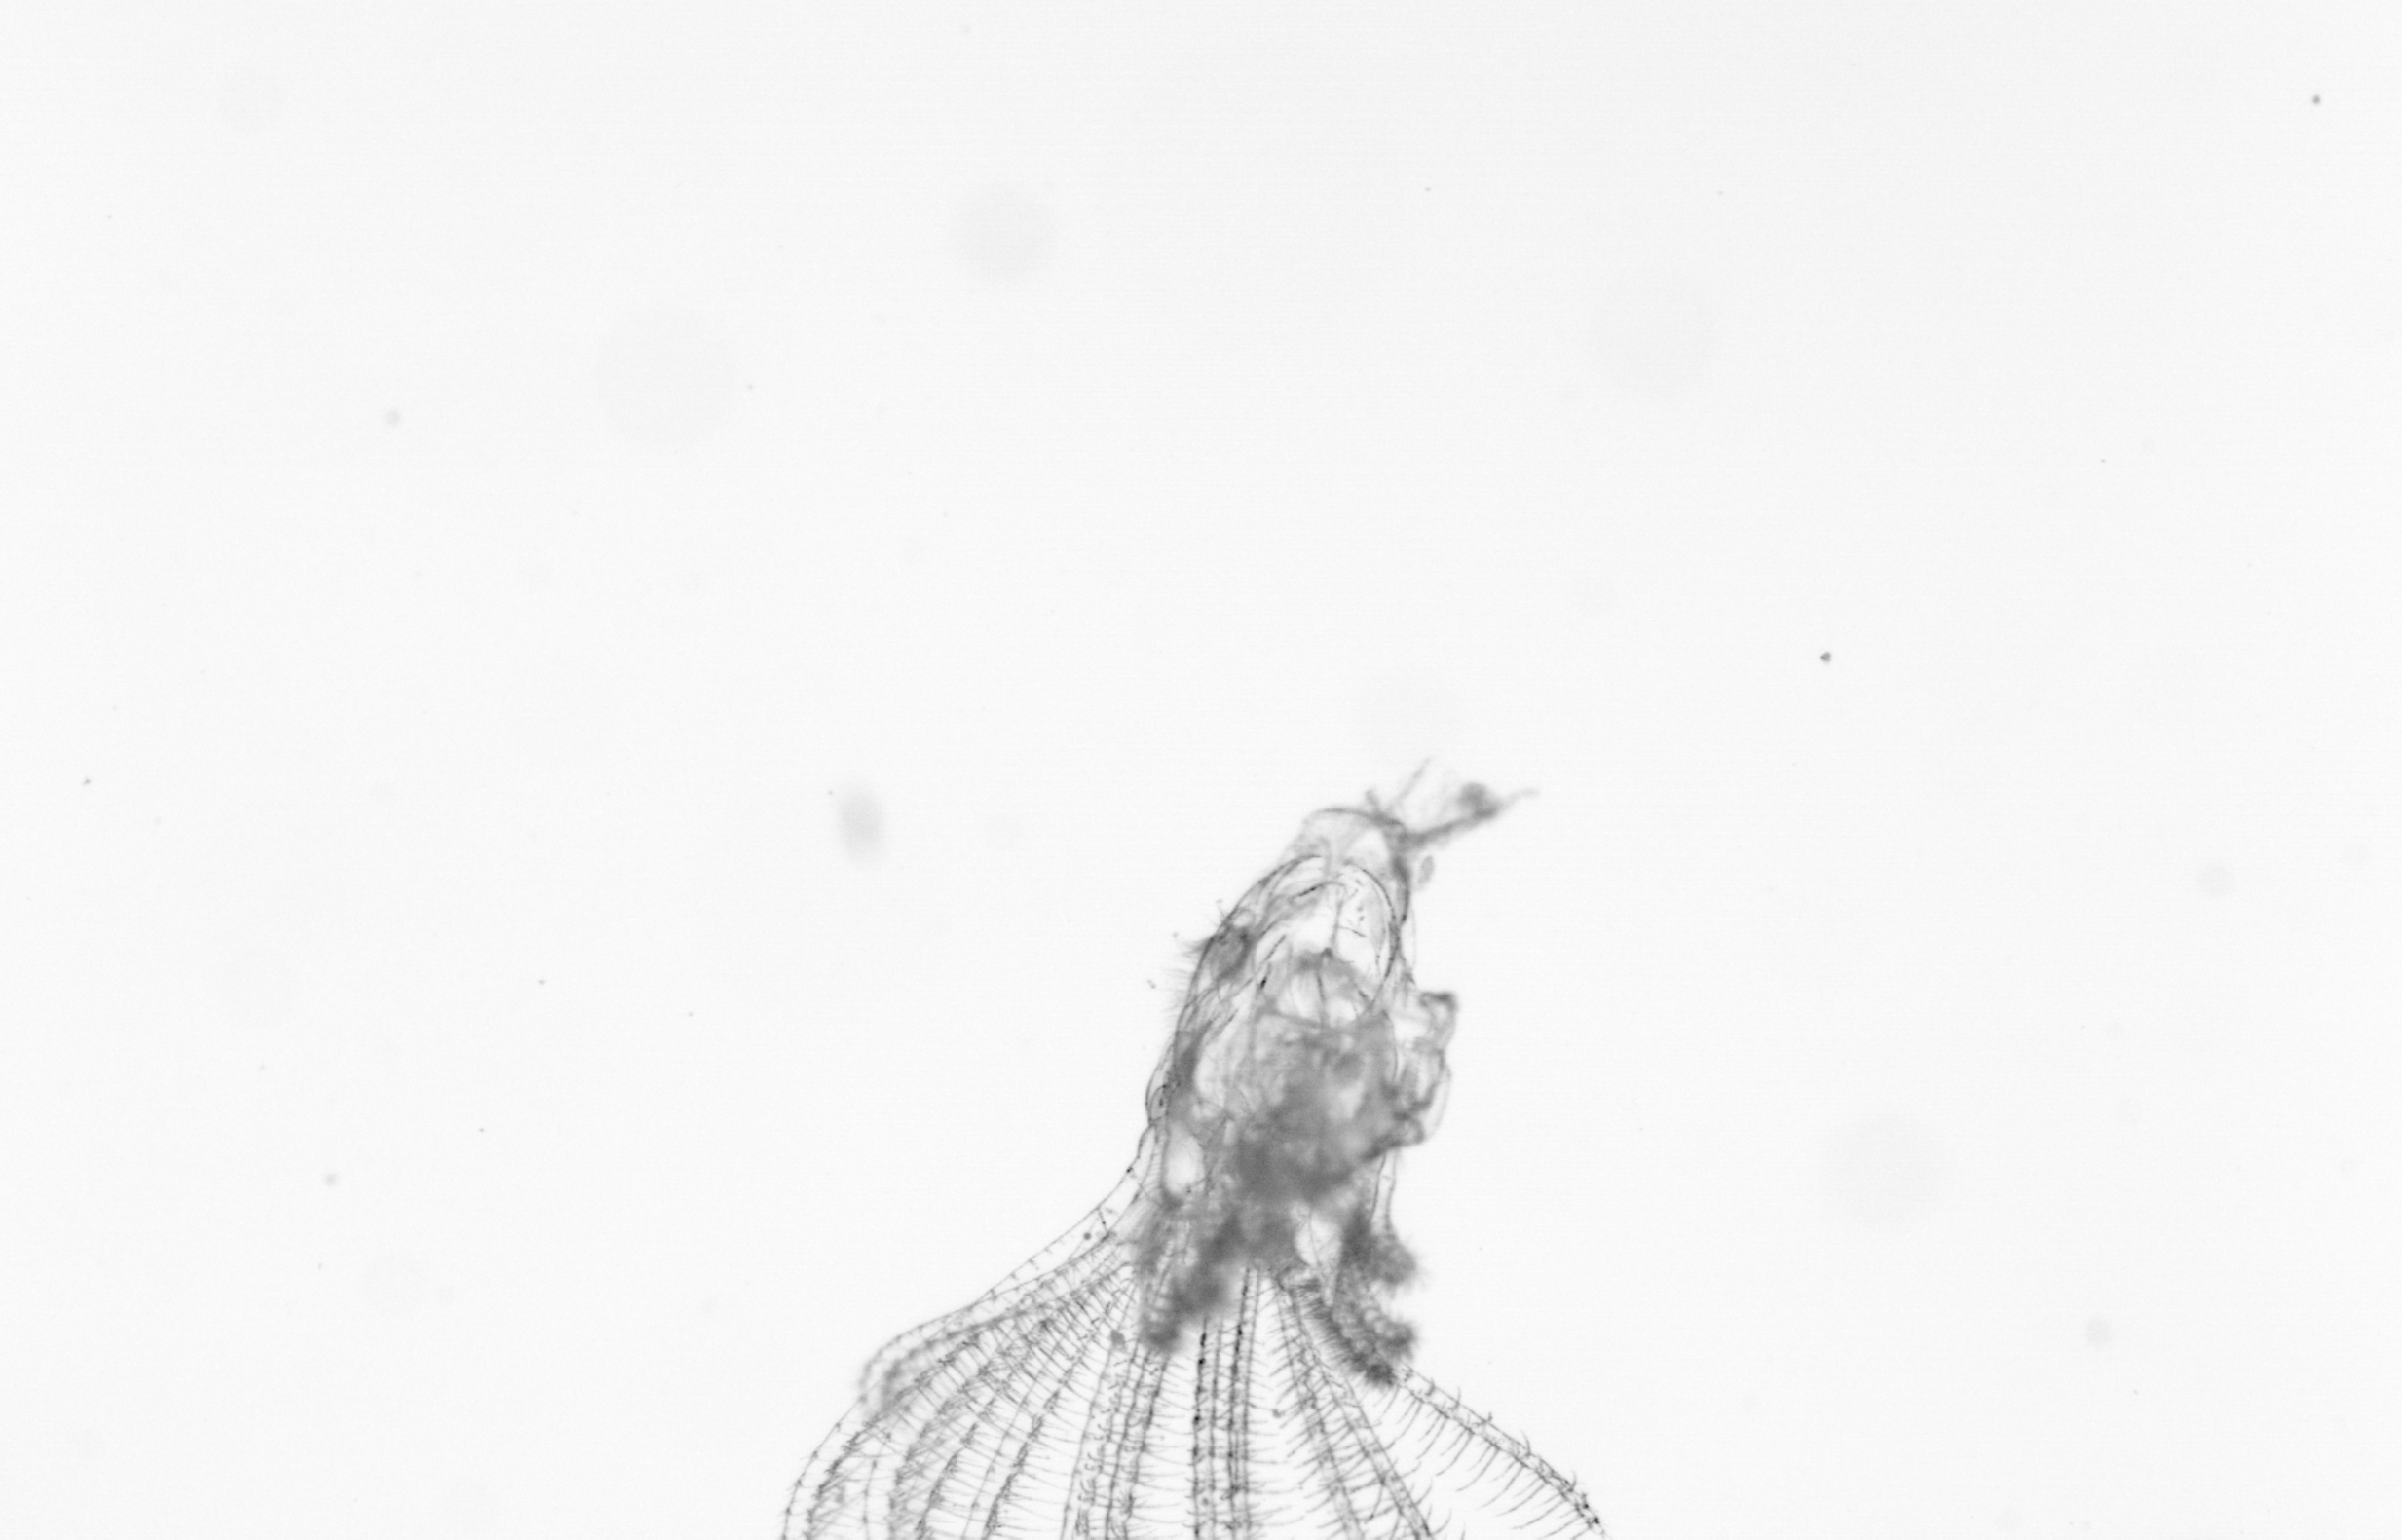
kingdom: Animalia
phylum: Arthropoda
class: Maxillopoda
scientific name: Maxillopoda
